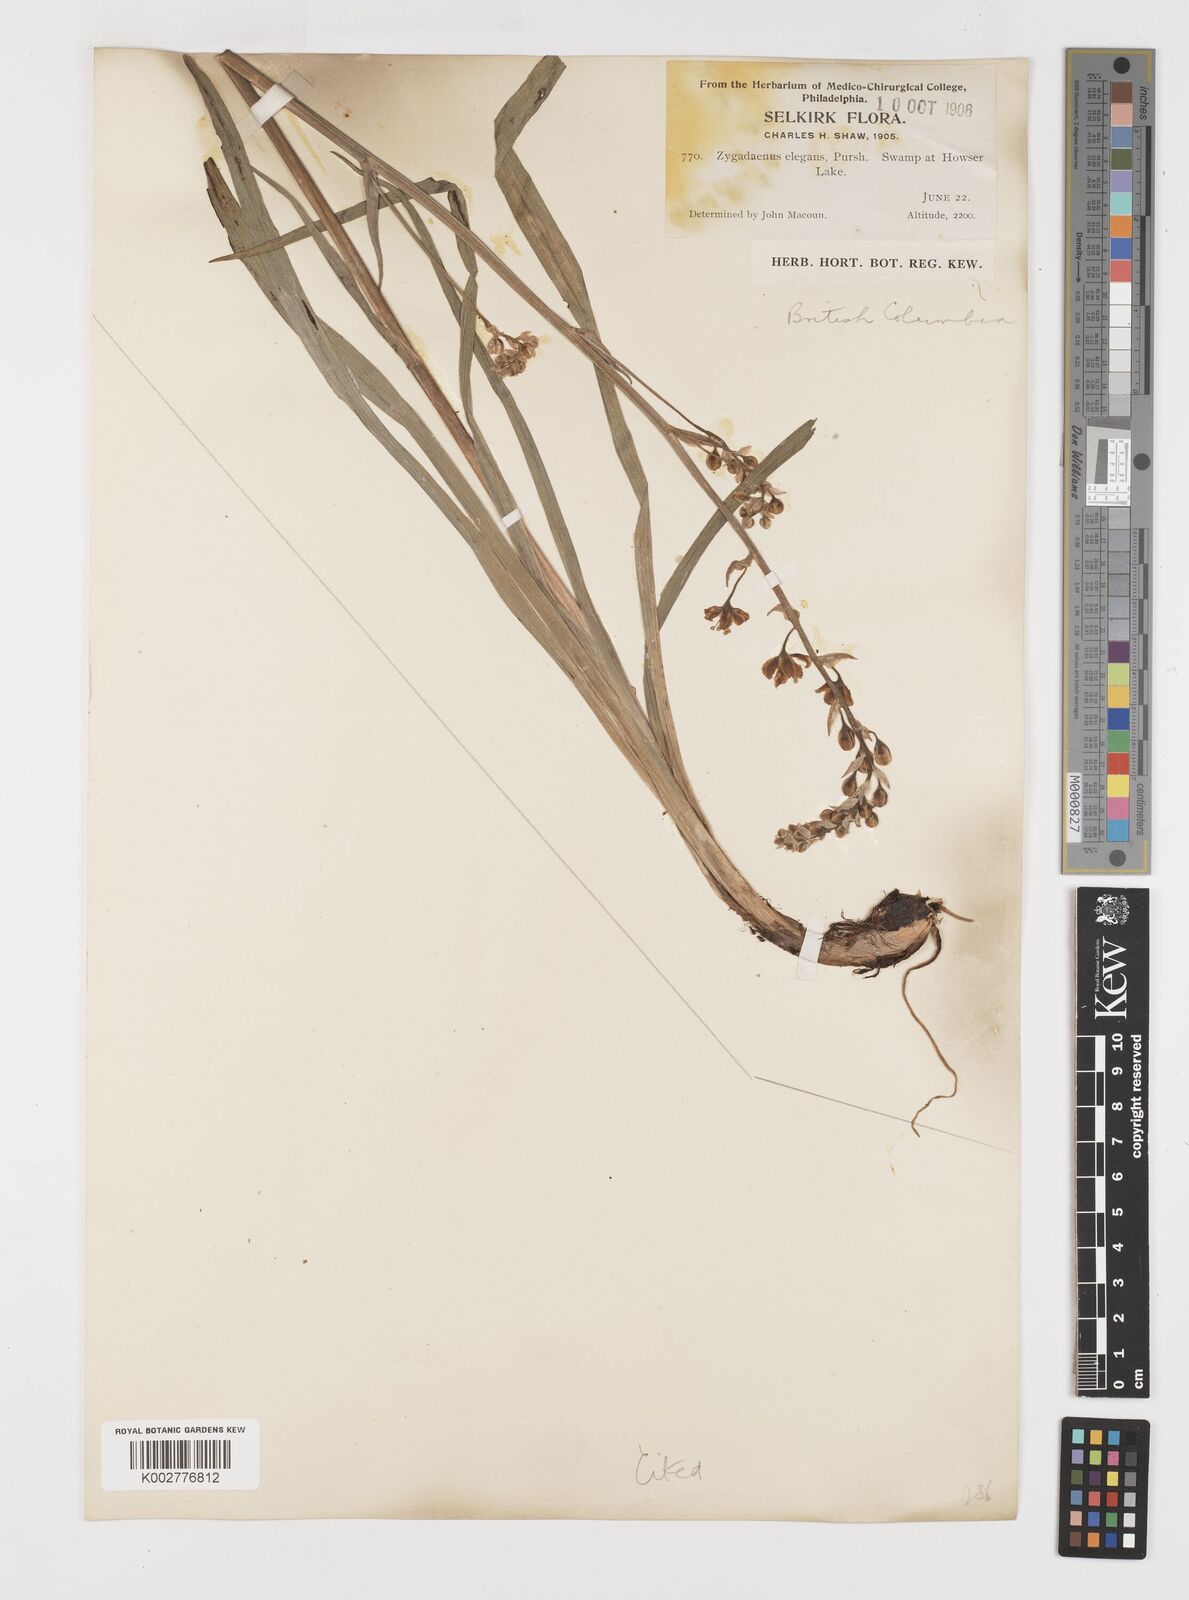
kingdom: Plantae
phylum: Tracheophyta
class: Liliopsida
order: Liliales
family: Melanthiaceae
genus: Anticlea
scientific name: Anticlea elegans
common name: Mountain death camas
